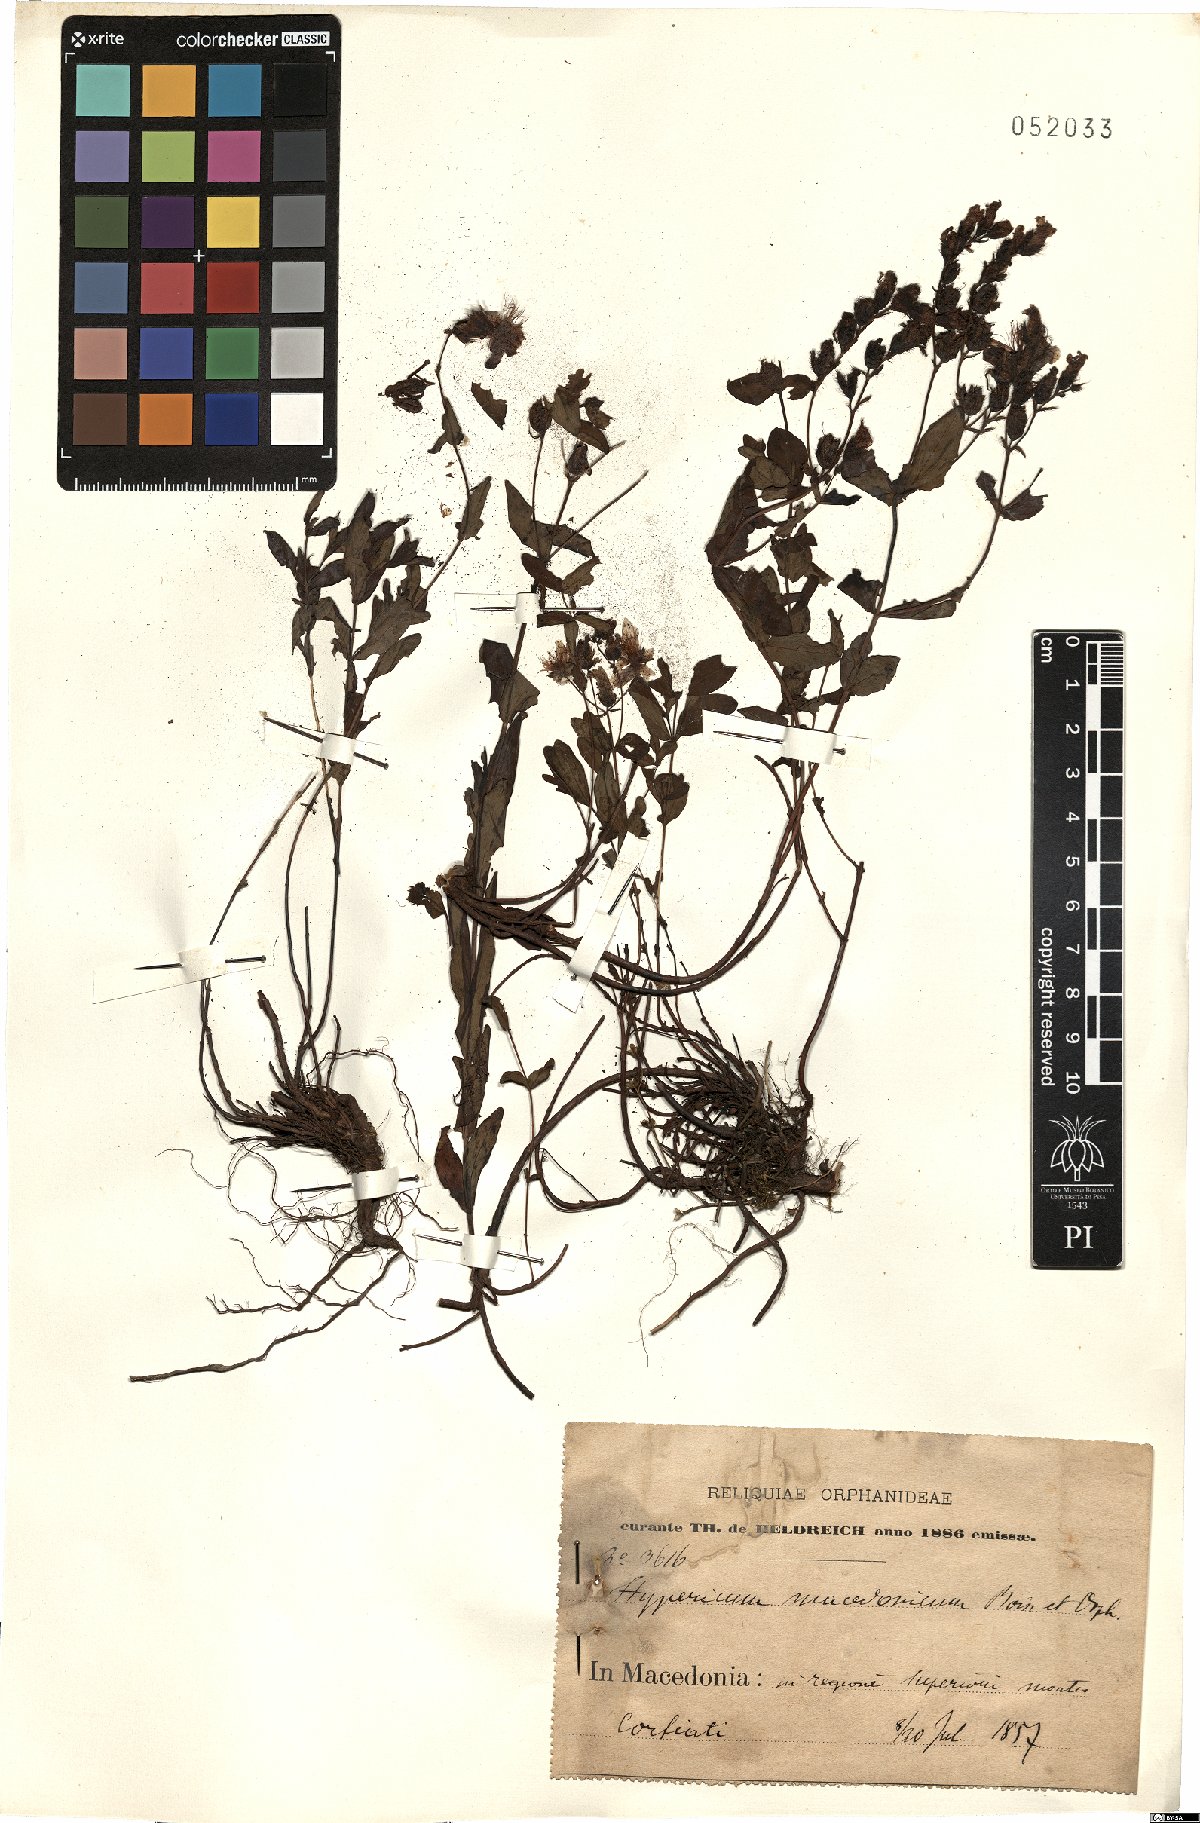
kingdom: Plantae
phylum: Tracheophyta
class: Magnoliopsida
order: Malpighiales
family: Hypericaceae
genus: Hypericum
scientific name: Hypericum barbatum
